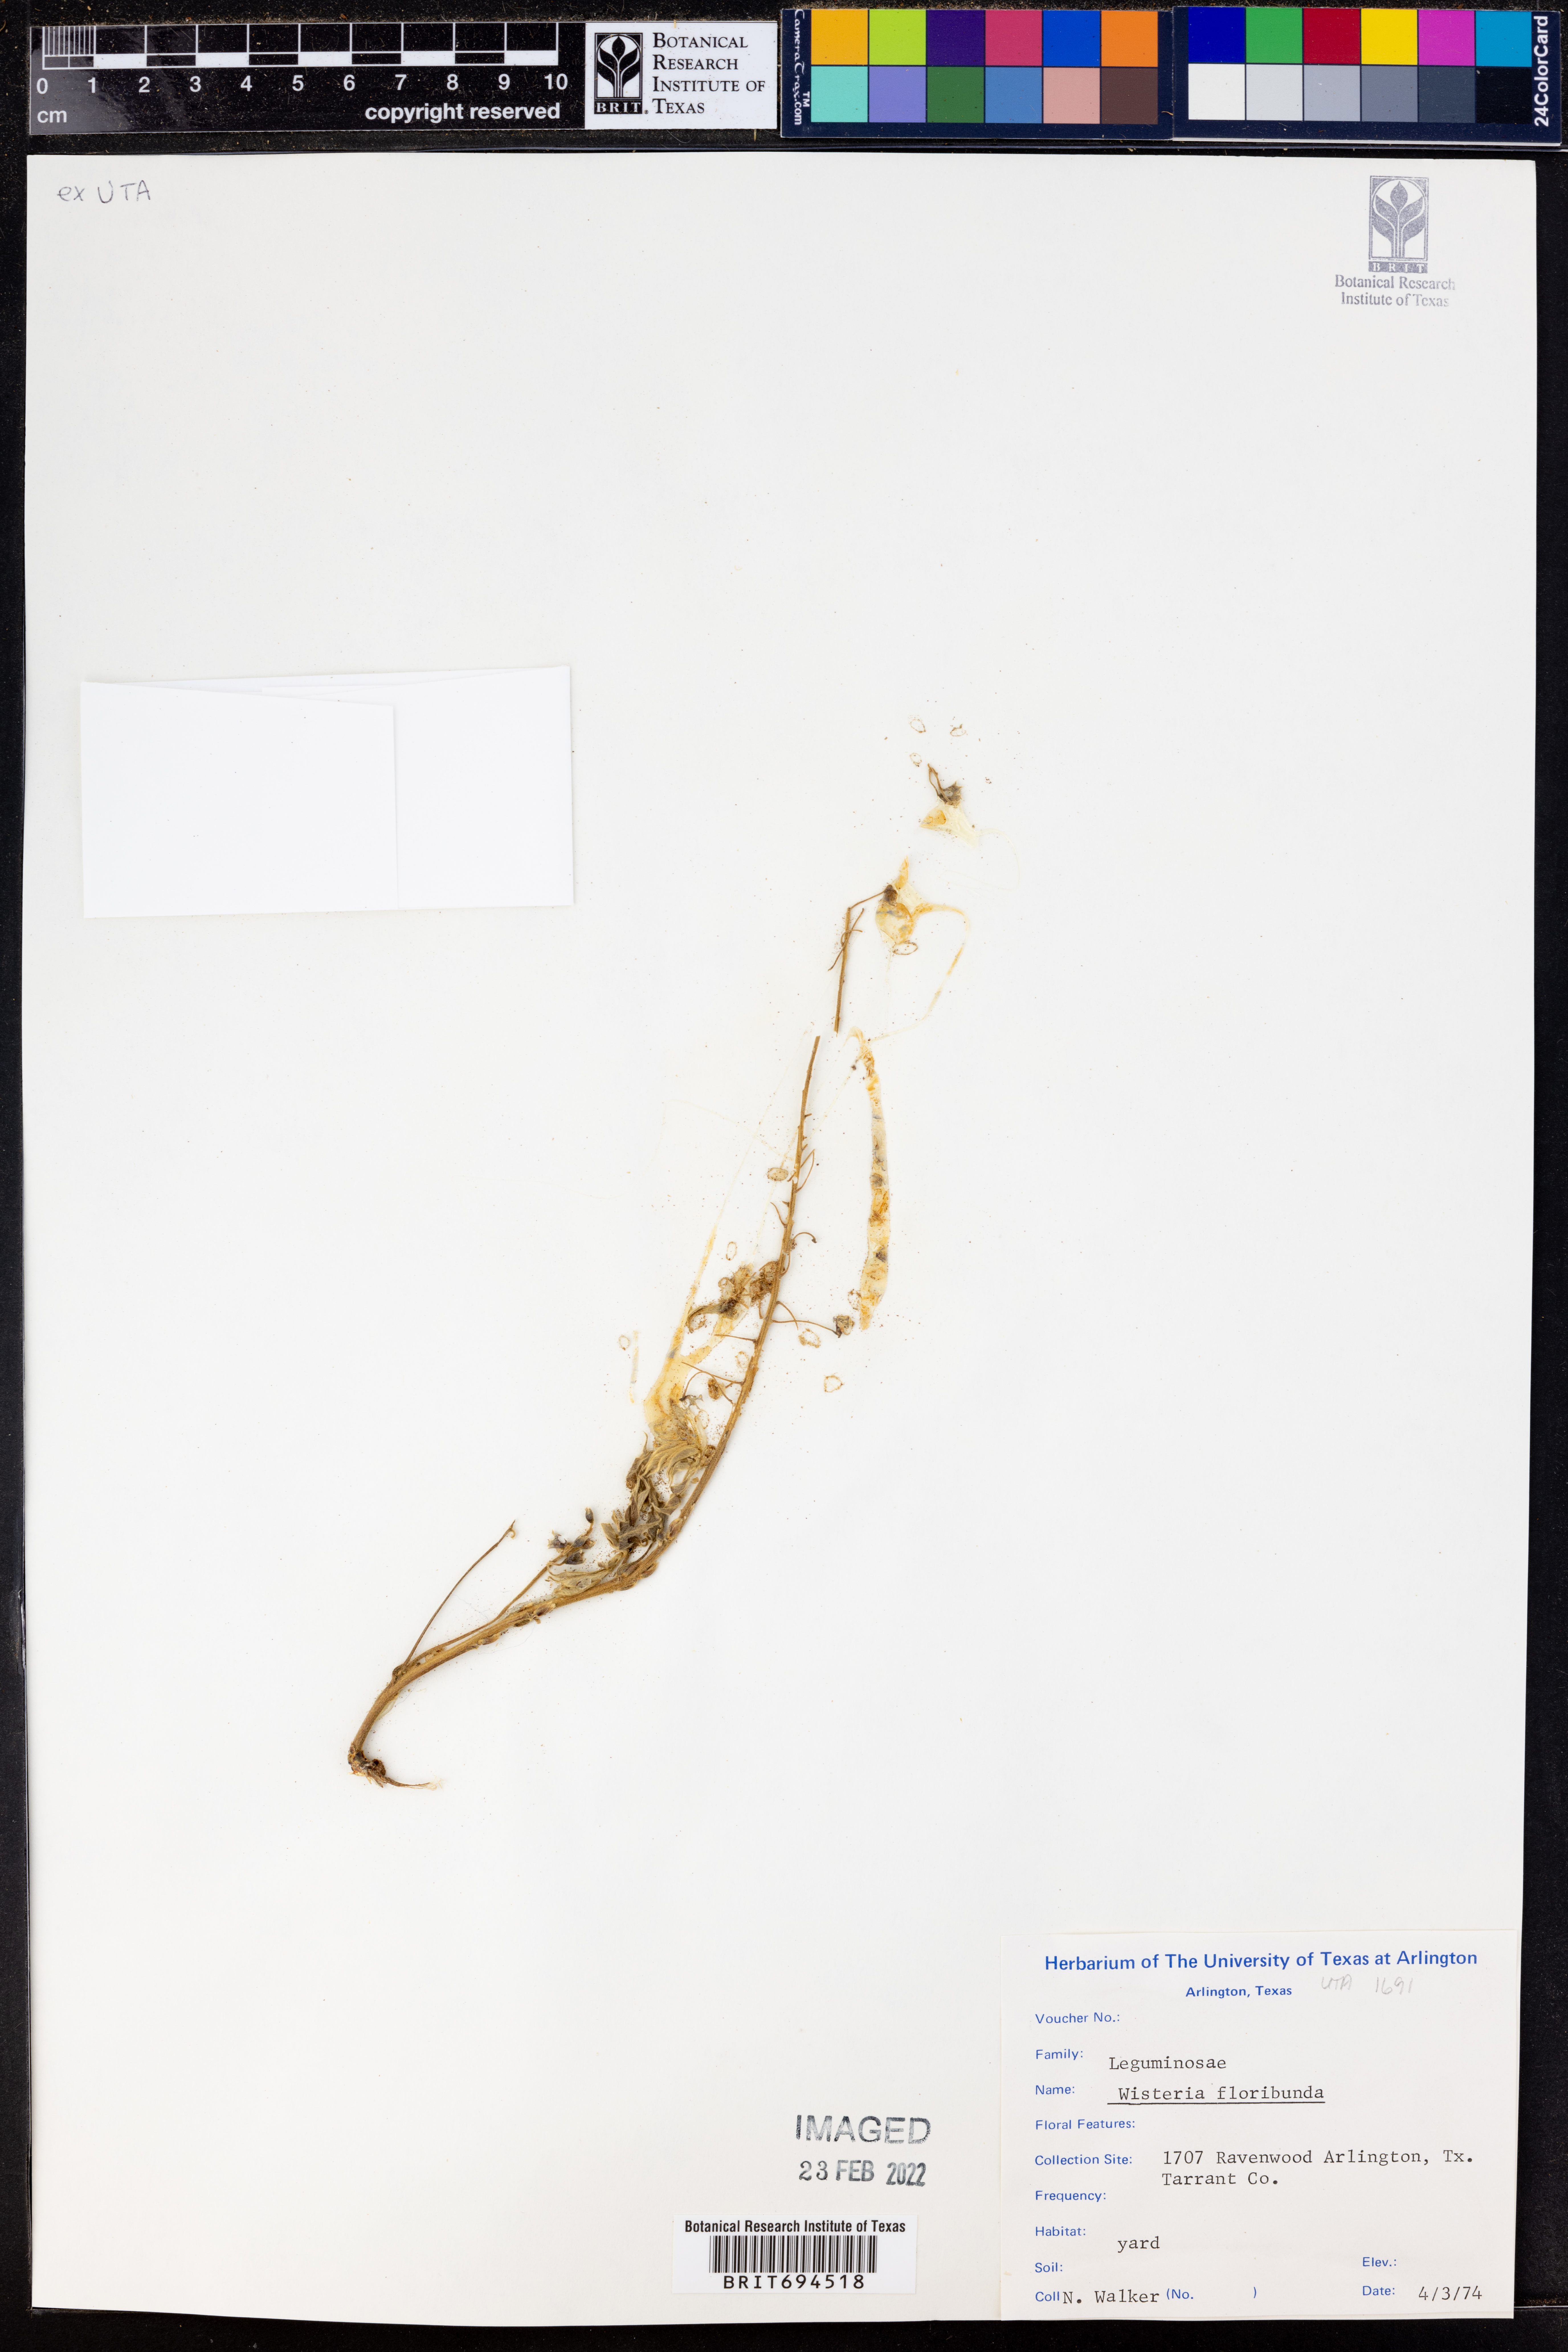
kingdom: Plantae
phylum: Tracheophyta
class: Magnoliopsida
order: Fabales
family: Fabaceae
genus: Wisteria
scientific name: Wisteria floribunda
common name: Japanese wisteria
